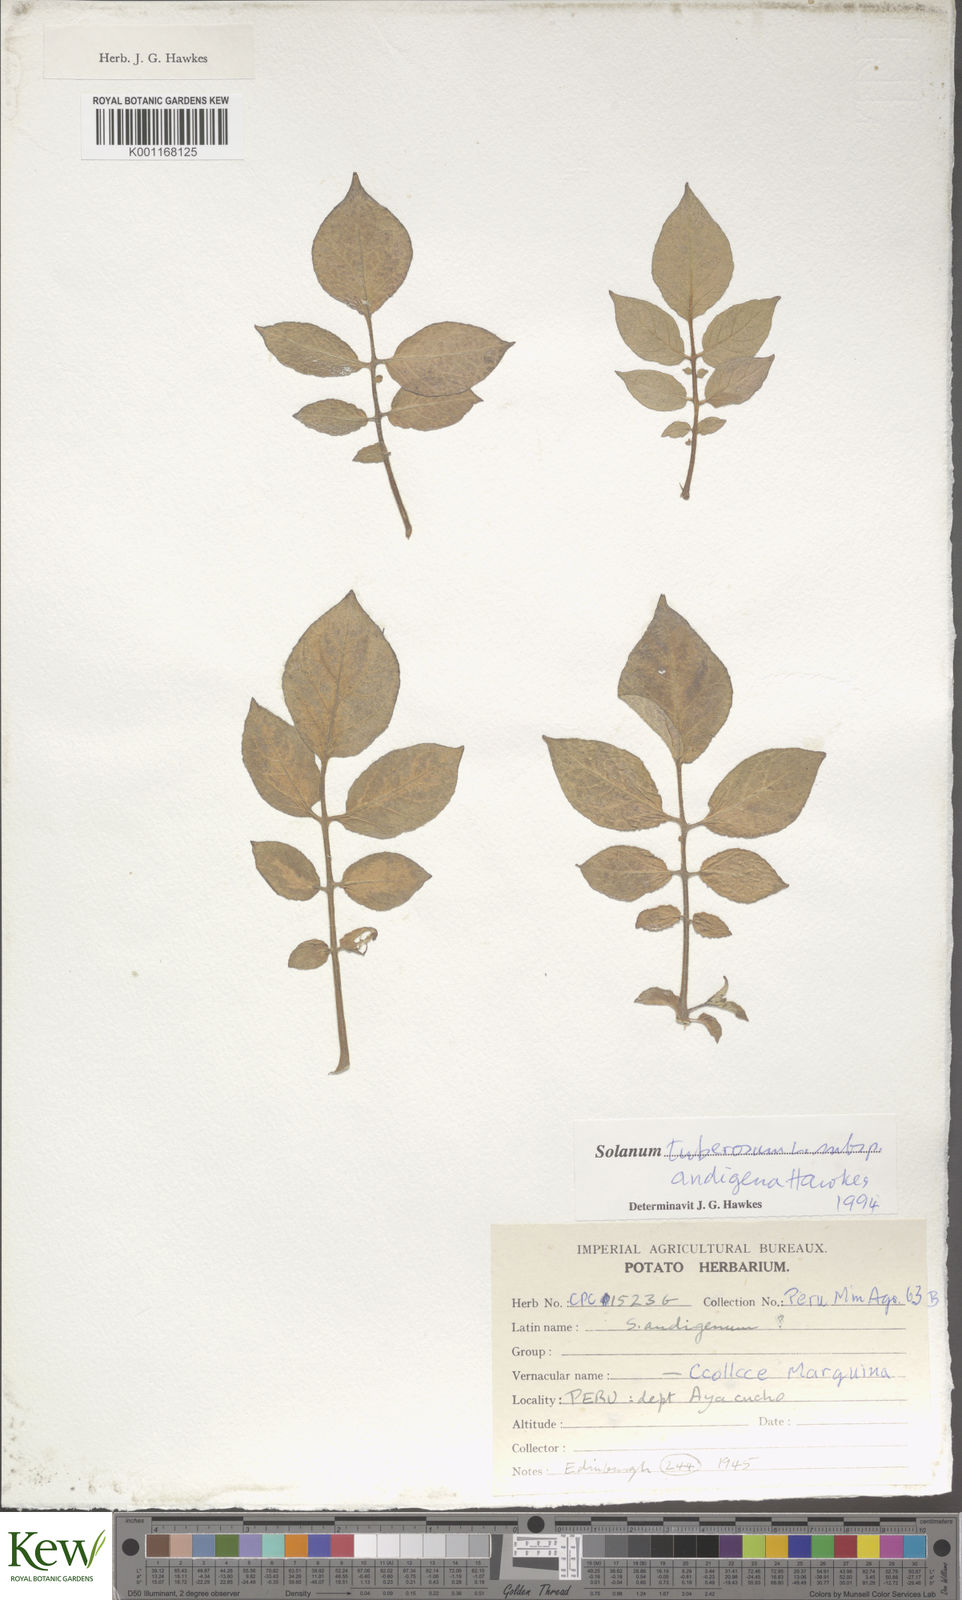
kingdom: Plantae
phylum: Tracheophyta
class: Magnoliopsida
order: Solanales
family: Solanaceae
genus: Solanum
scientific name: Solanum tuberosum
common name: Potato
